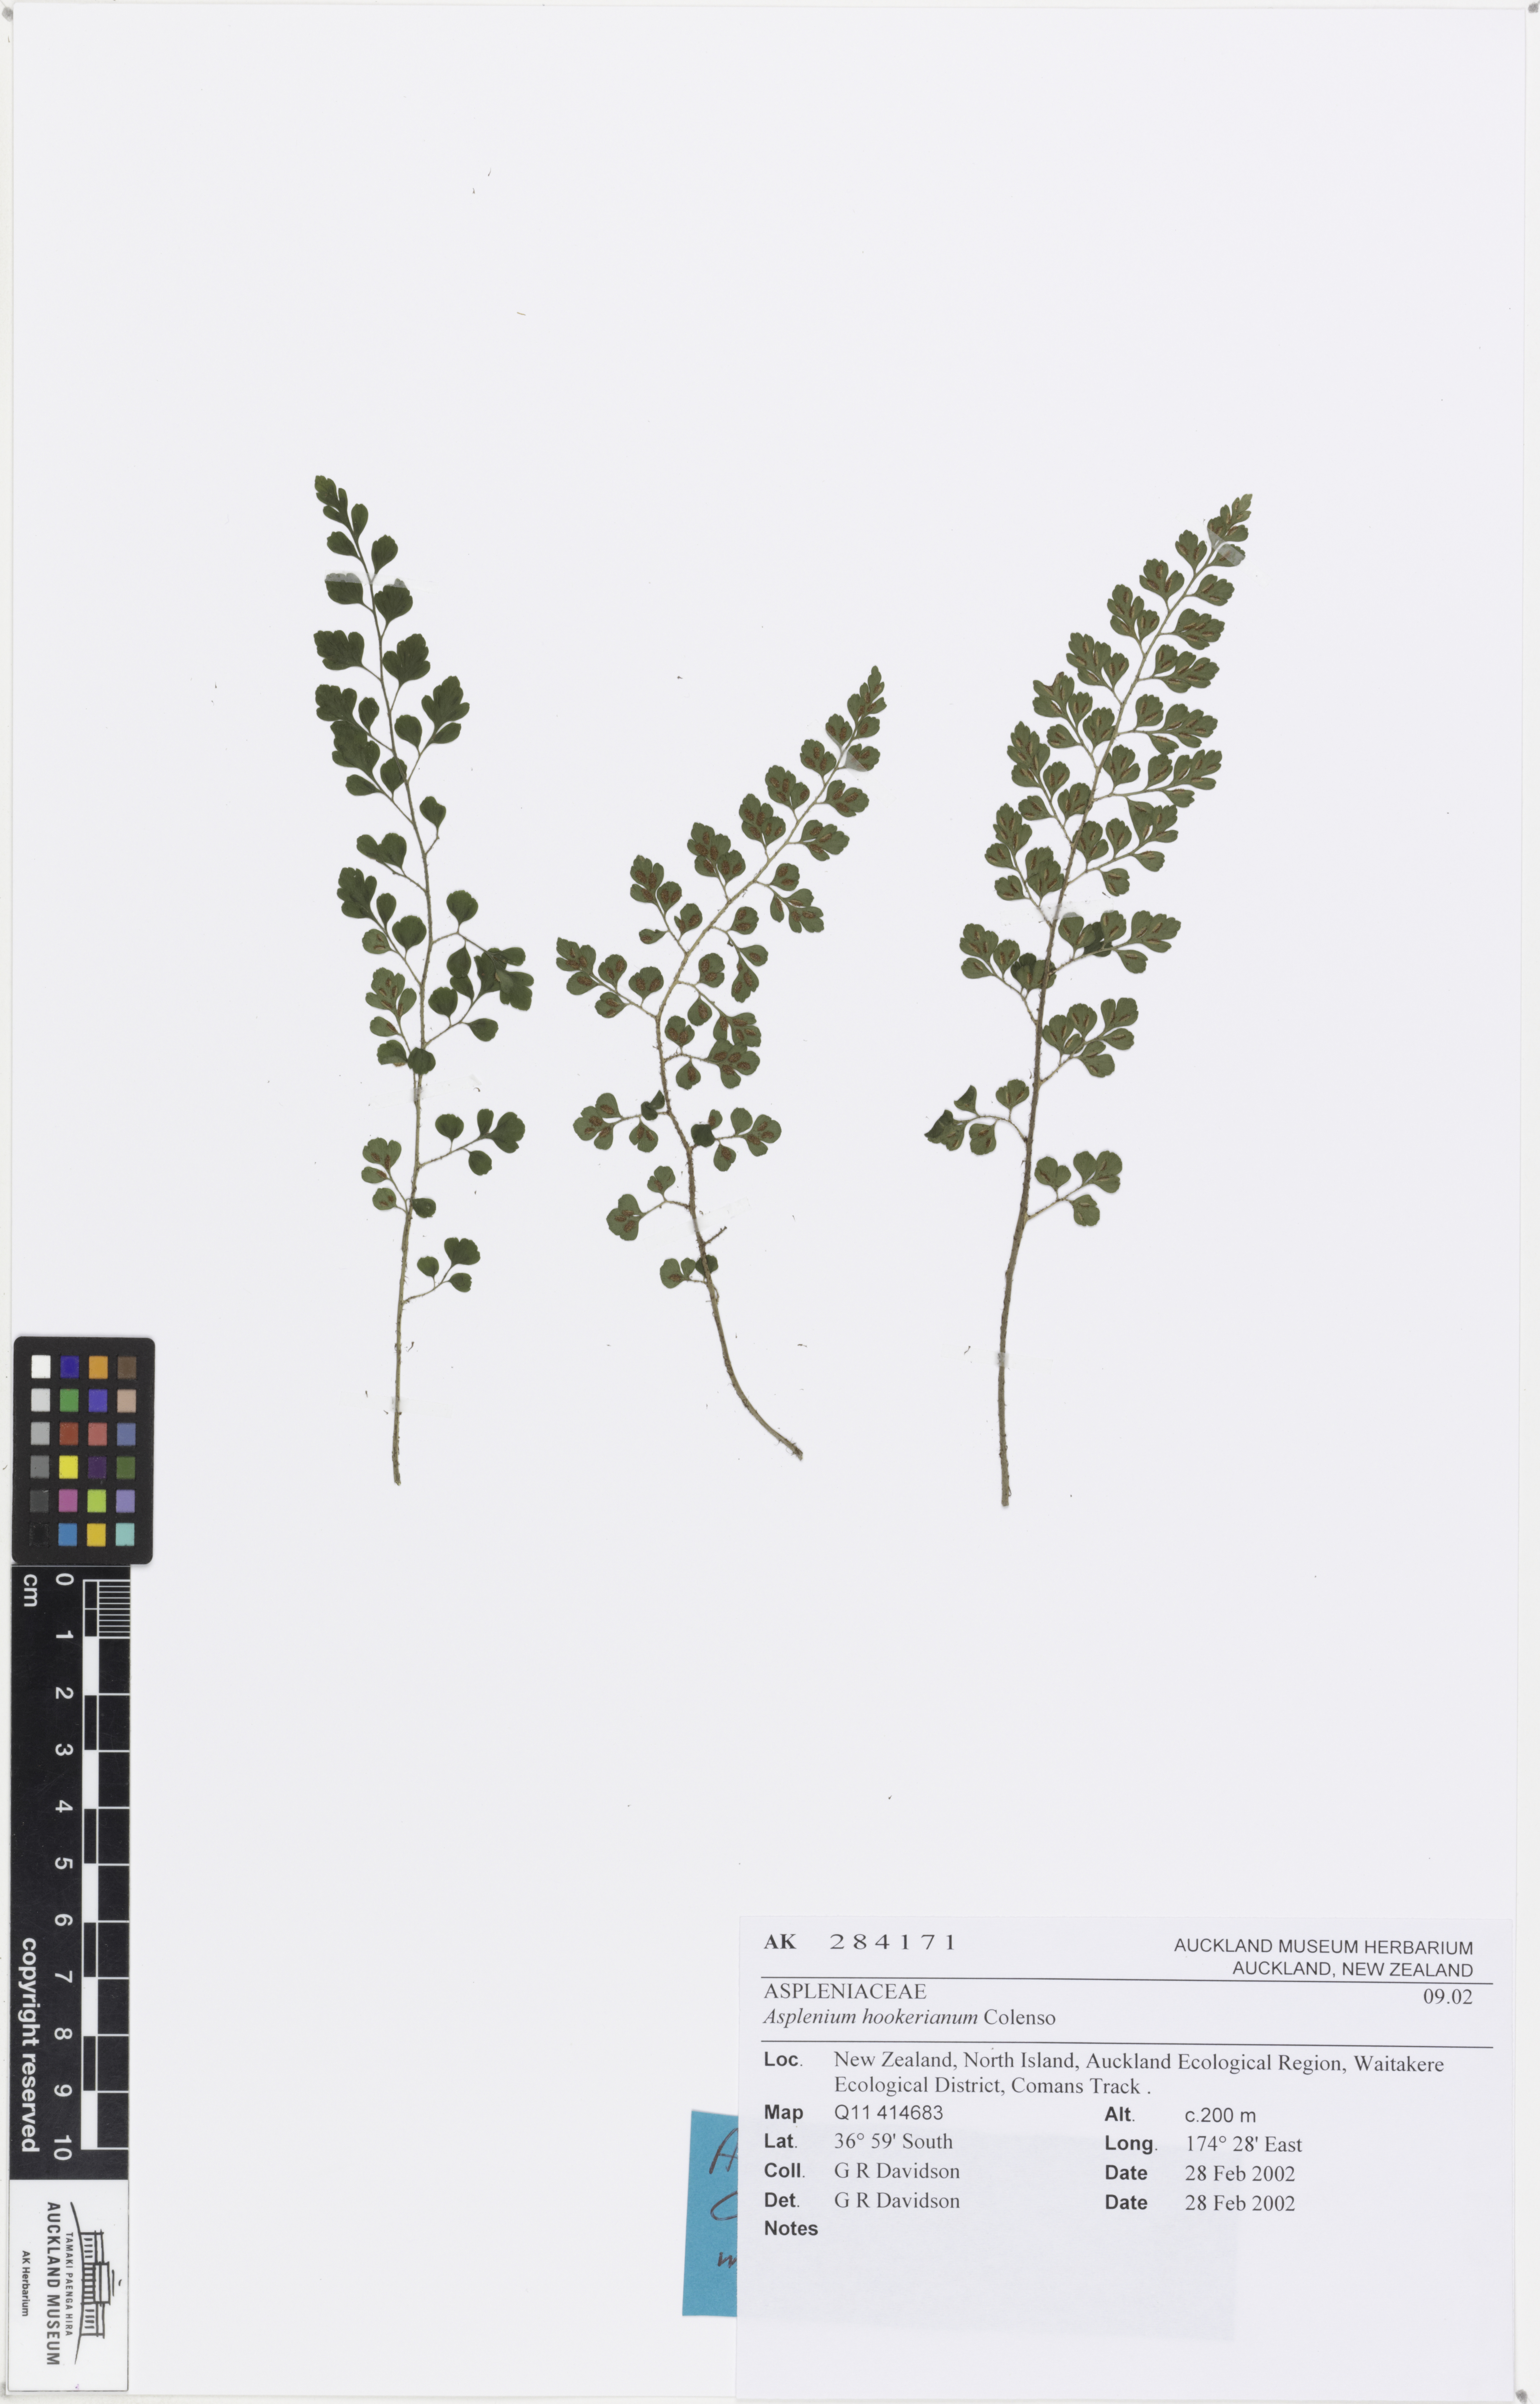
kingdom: Plantae
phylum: Tracheophyta
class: Polypodiopsida
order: Polypodiales
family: Aspleniaceae
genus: Asplenium
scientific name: Asplenium hookerianum
